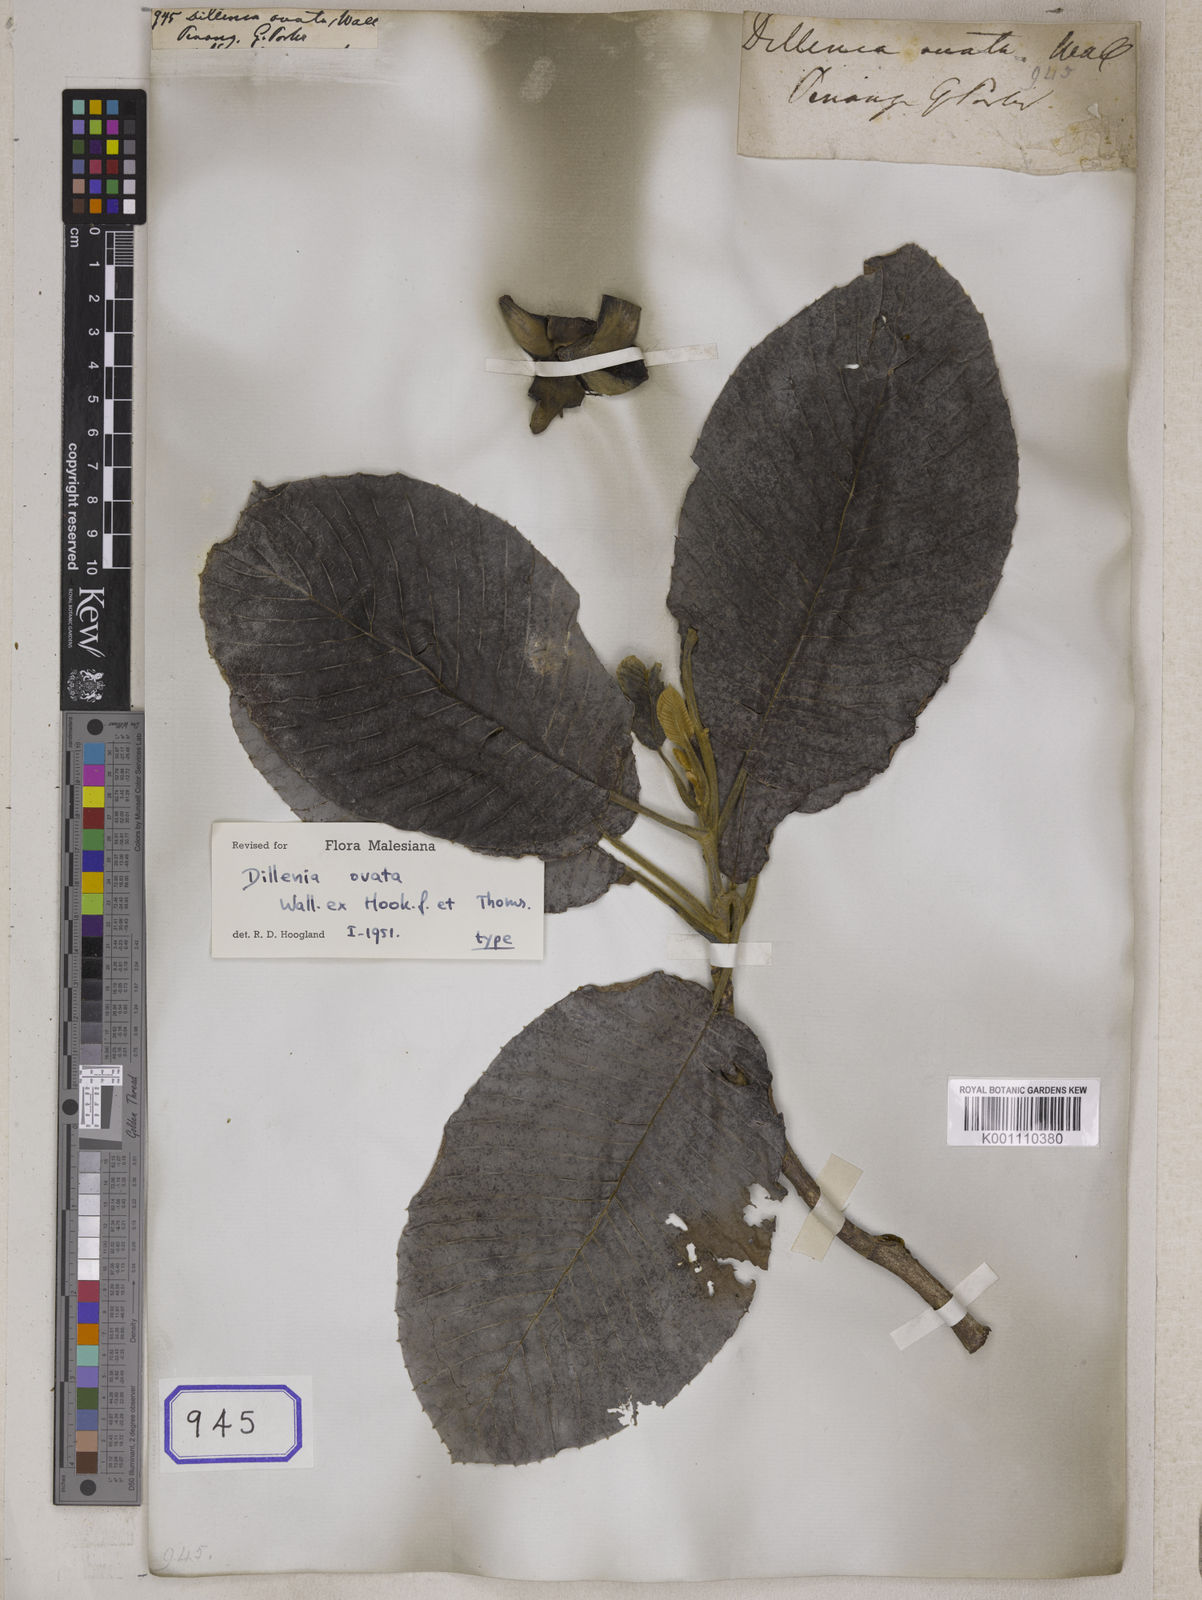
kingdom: Plantae
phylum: Tracheophyta
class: Magnoliopsida
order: Dilleniales
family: Dilleniaceae
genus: Dillenia
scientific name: Dillenia
